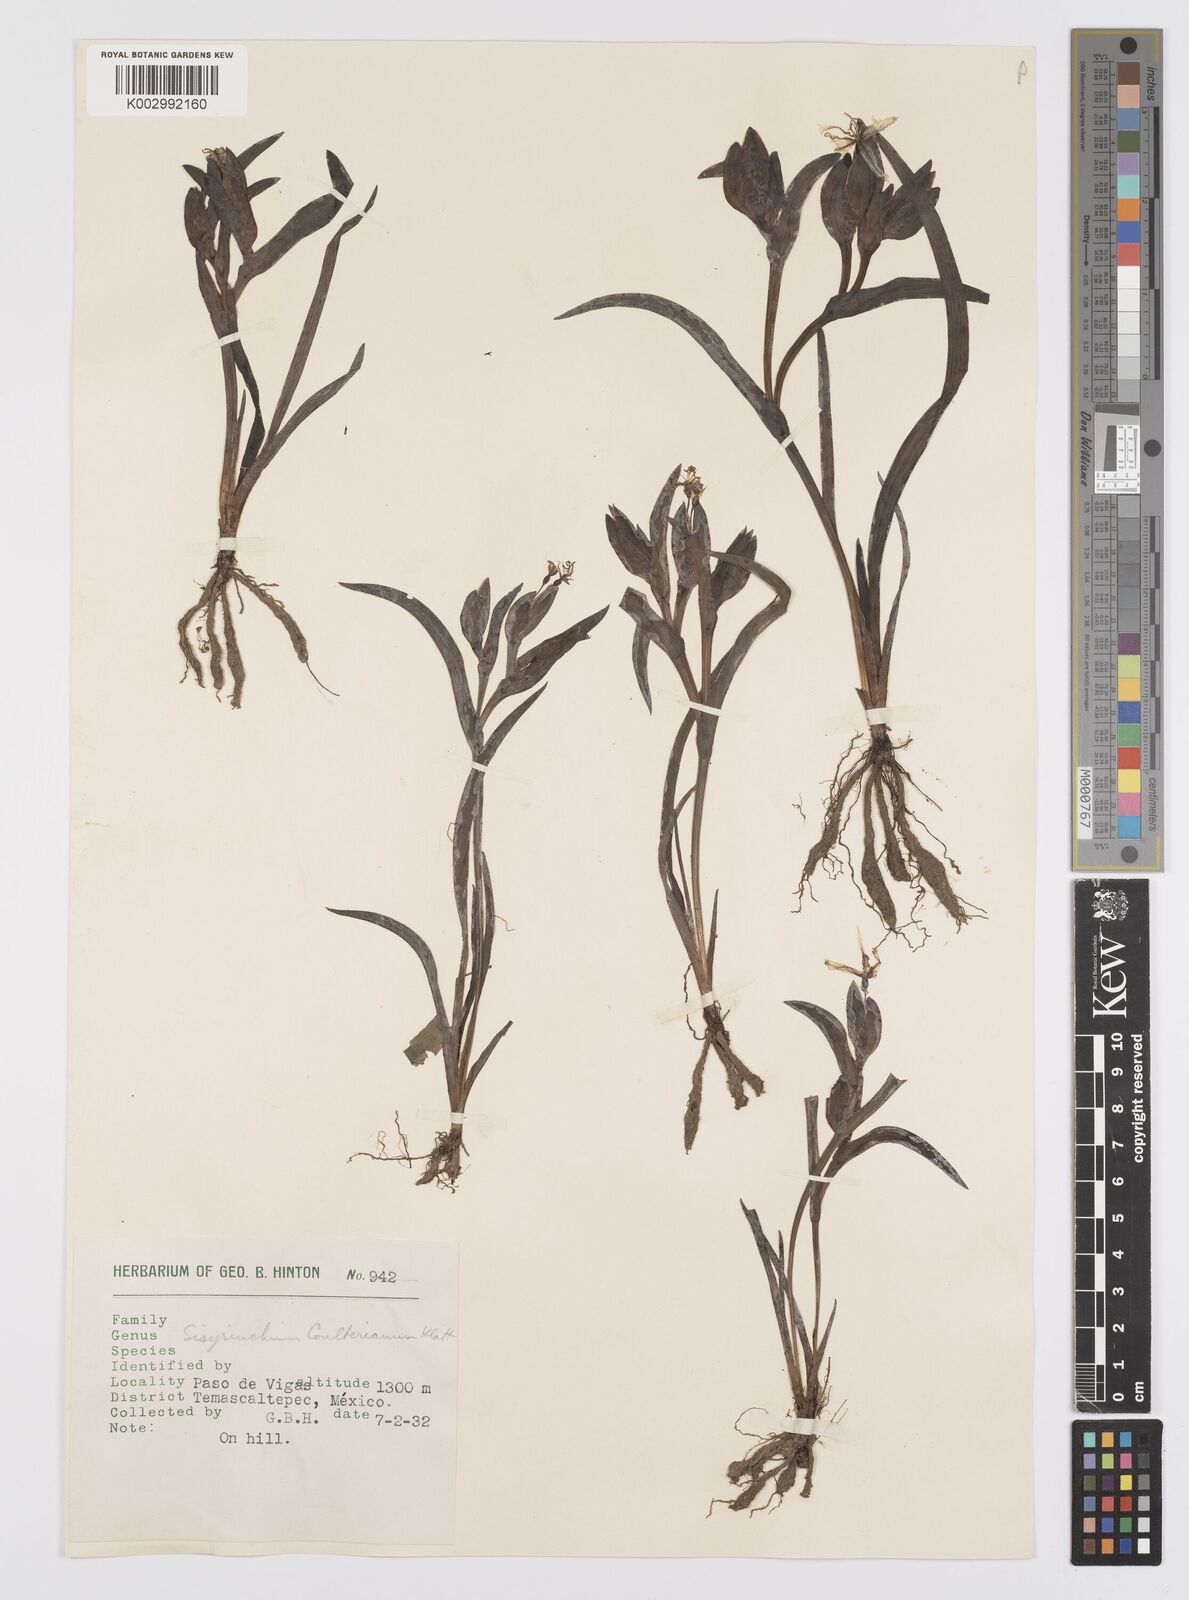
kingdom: Plantae
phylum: Tracheophyta
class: Liliopsida
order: Asparagales
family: Iridaceae
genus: Sisyrinchium
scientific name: Sisyrinchium coulterianum
